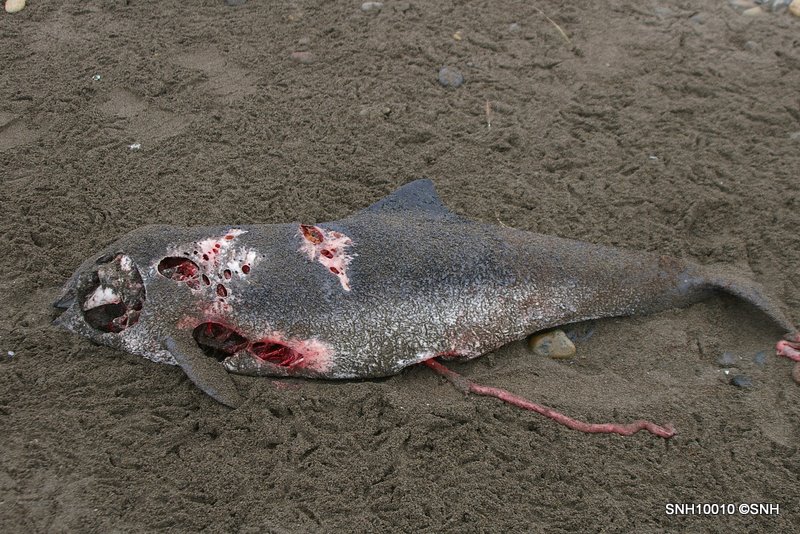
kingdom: Animalia
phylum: Chordata
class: Mammalia
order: Cetacea
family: Phocoenidae
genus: Phocoena
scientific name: Phocoena phocoena
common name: Harbour porpoise
